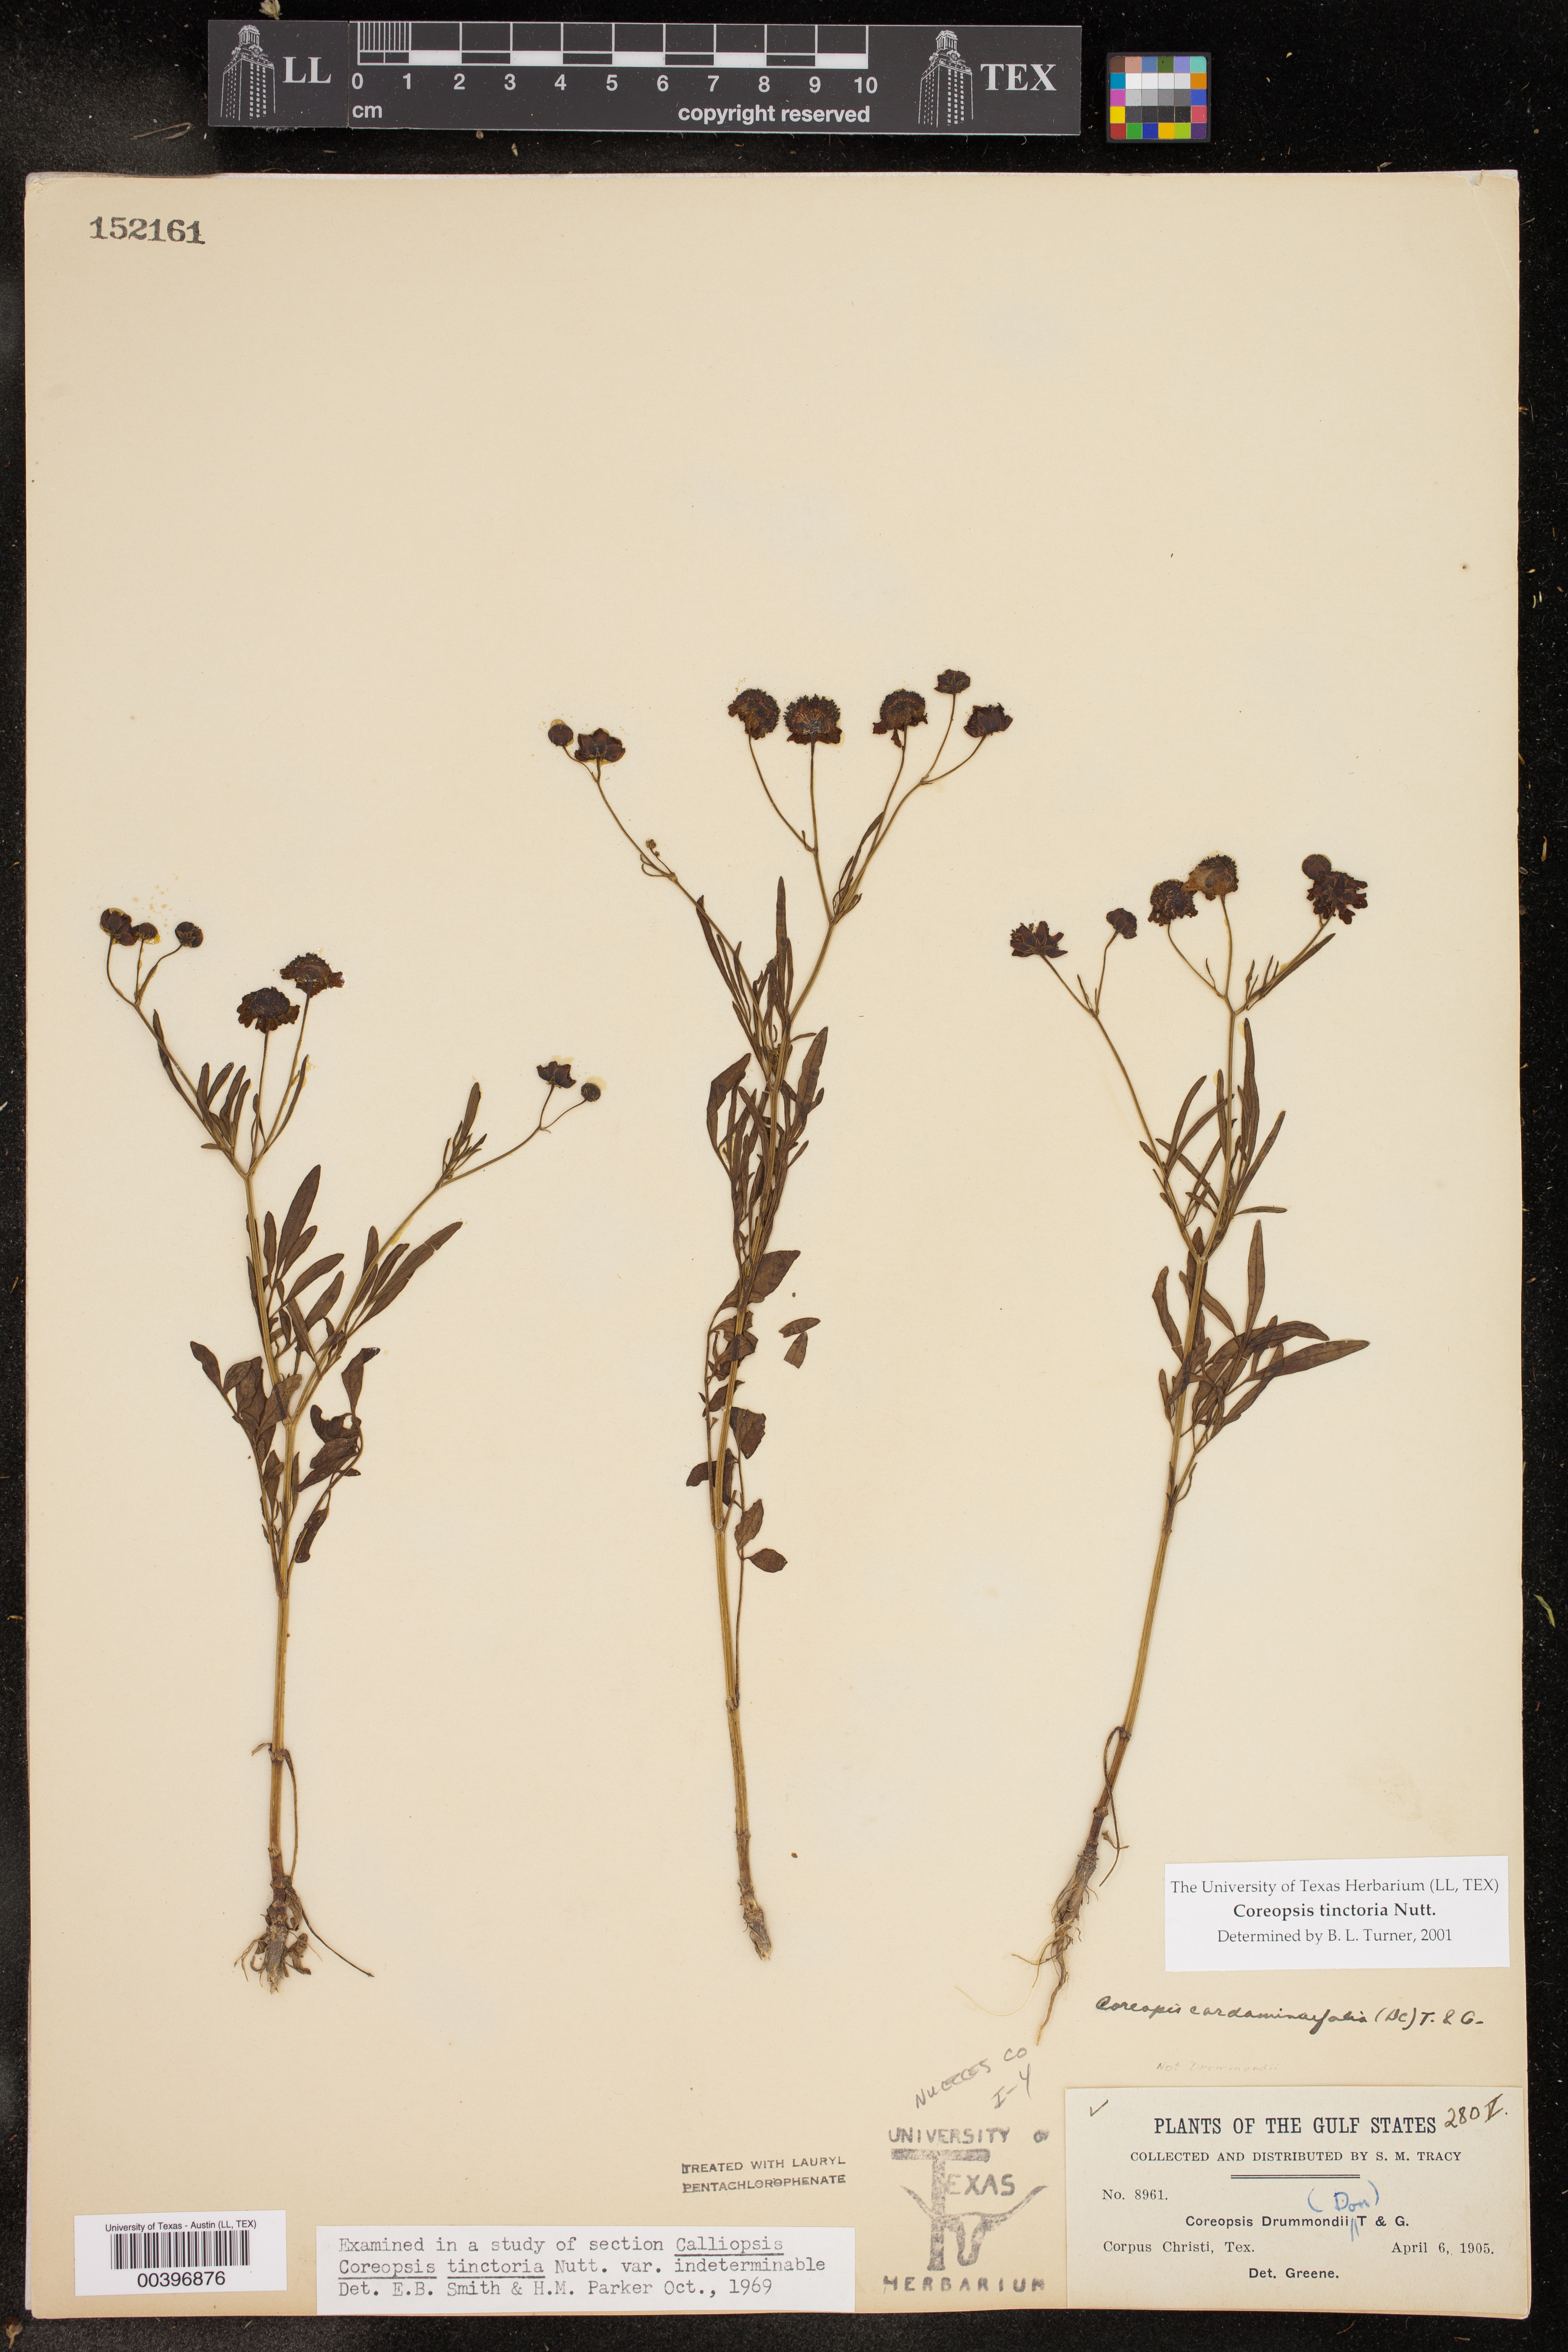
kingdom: Plantae
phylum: Tracheophyta
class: Magnoliopsida
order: Asterales
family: Asteraceae
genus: Coreopsis
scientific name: Coreopsis tinctoria
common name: Garden tickseed
